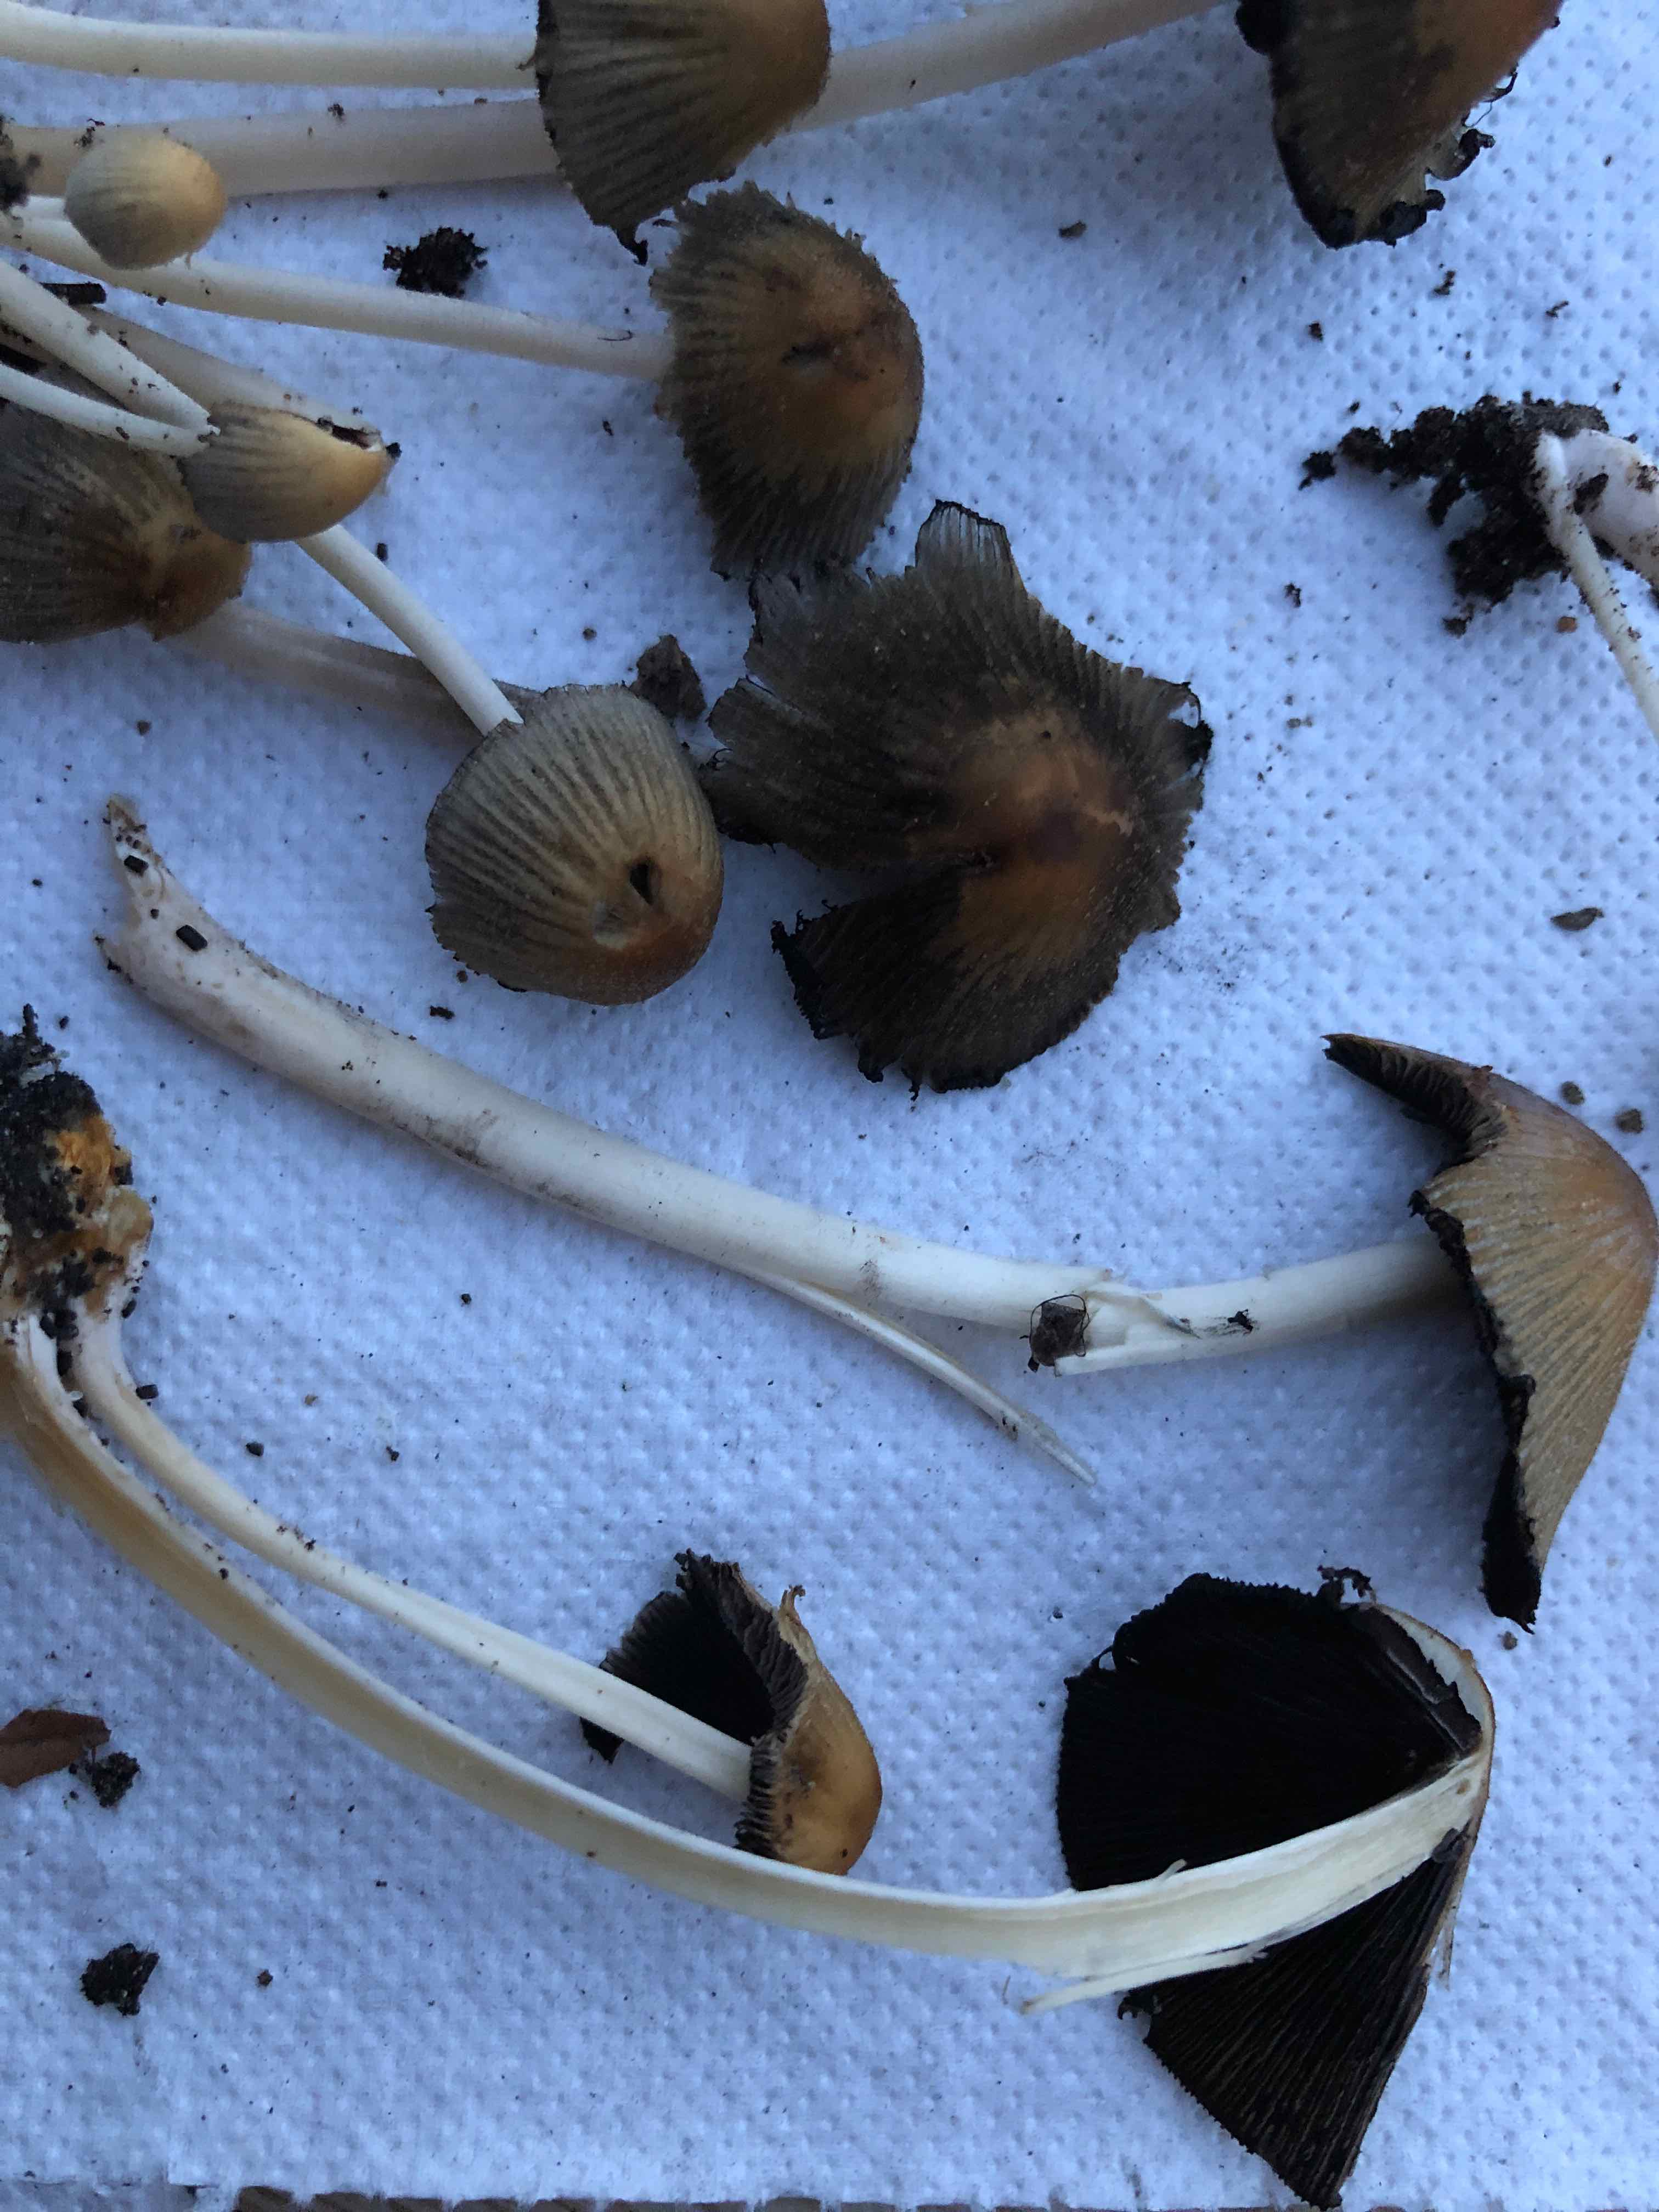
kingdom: Fungi
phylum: Basidiomycota
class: Agaricomycetes
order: Agaricales
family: Psathyrellaceae
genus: Coprinellus
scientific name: Coprinellus micaceus
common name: glimmer-blækhat
